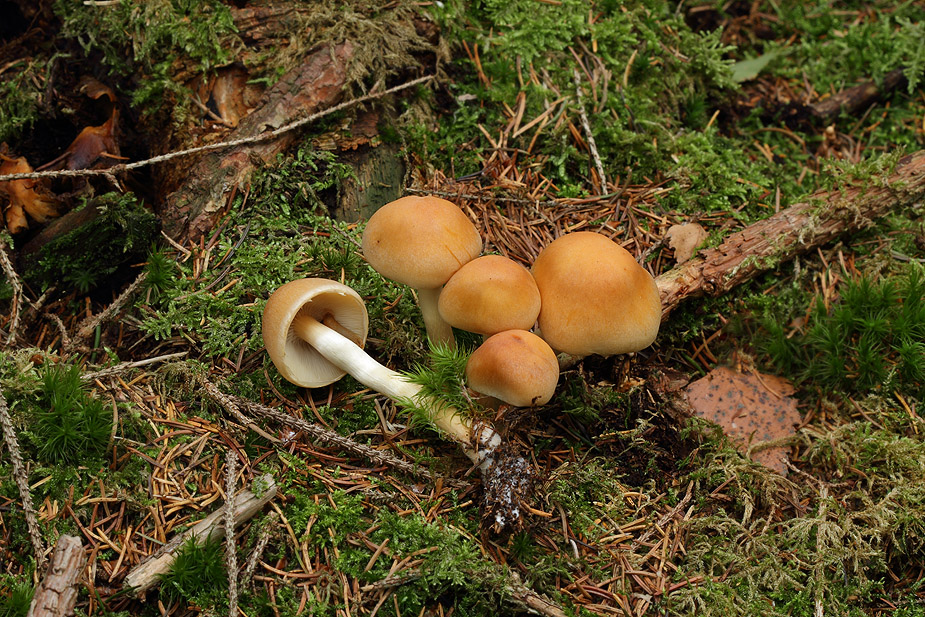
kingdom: Fungi
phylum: Basidiomycota
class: Agaricomycetes
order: Agaricales
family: Strophariaceae
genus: Hypholoma
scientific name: Hypholoma capnoides
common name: gran-svovlhat
